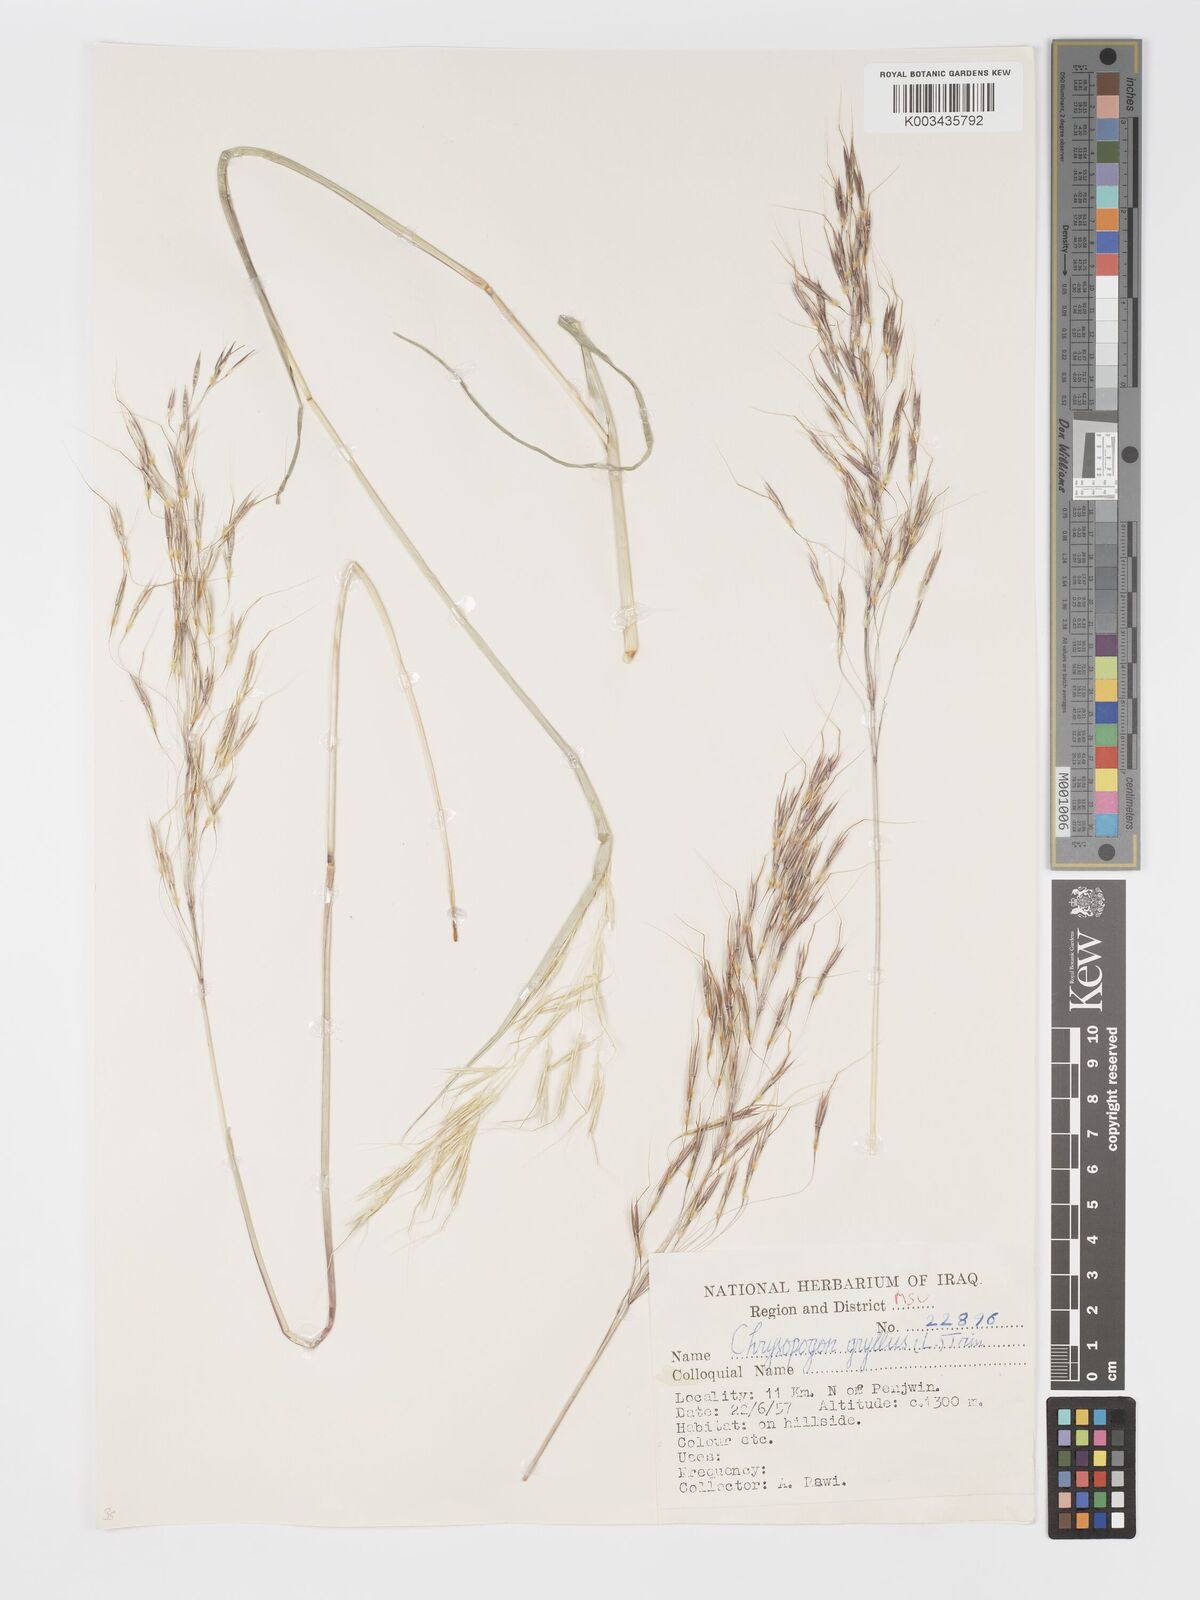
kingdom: Plantae
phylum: Tracheophyta
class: Liliopsida
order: Poales
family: Poaceae
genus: Chrysopogon
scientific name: Chrysopogon gryllus
